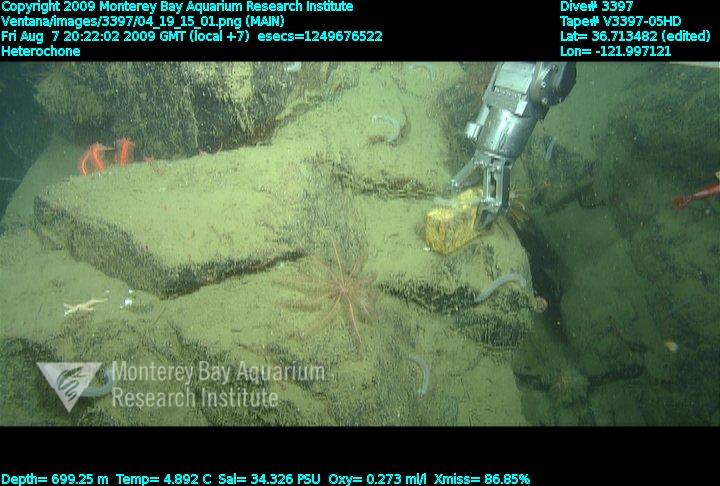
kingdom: Animalia
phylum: Porifera
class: Hexactinellida
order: Sceptrulophora
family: Aphrocallistidae
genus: Heterochone
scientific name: Heterochone
